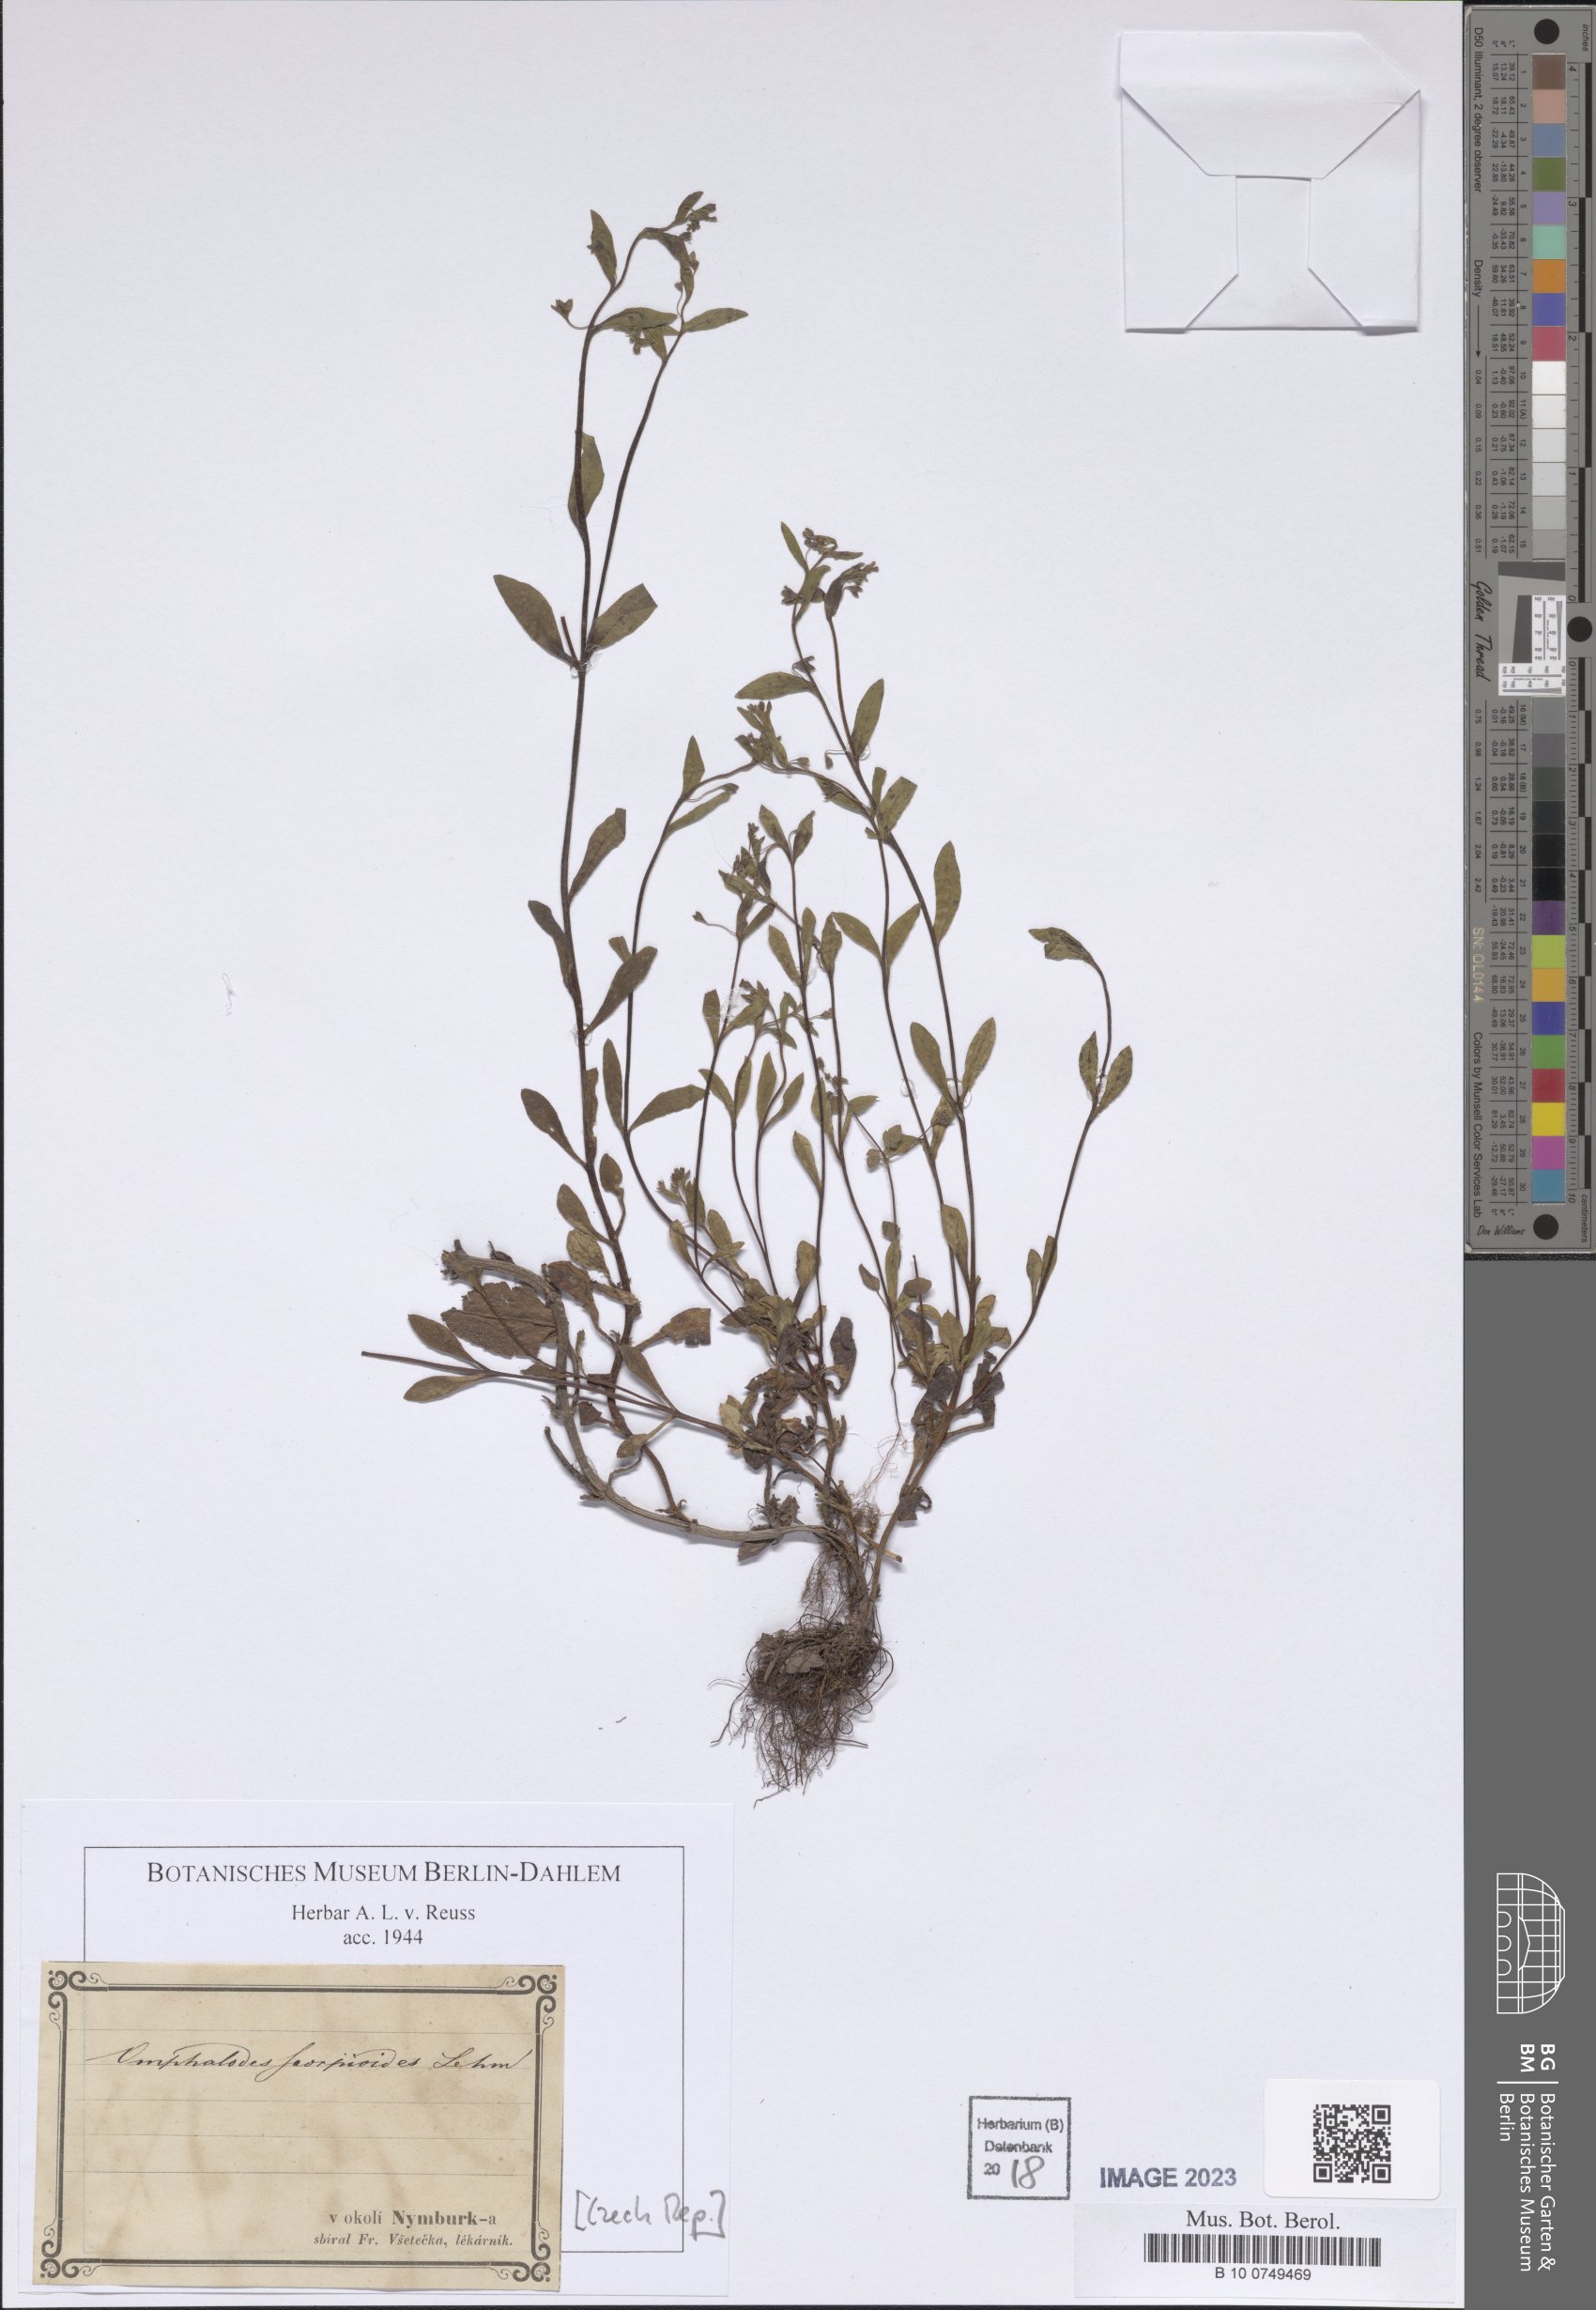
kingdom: Plantae
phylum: Tracheophyta
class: Magnoliopsida
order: Boraginales
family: Boraginaceae
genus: Memoremea
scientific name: Memoremea scorpioides
